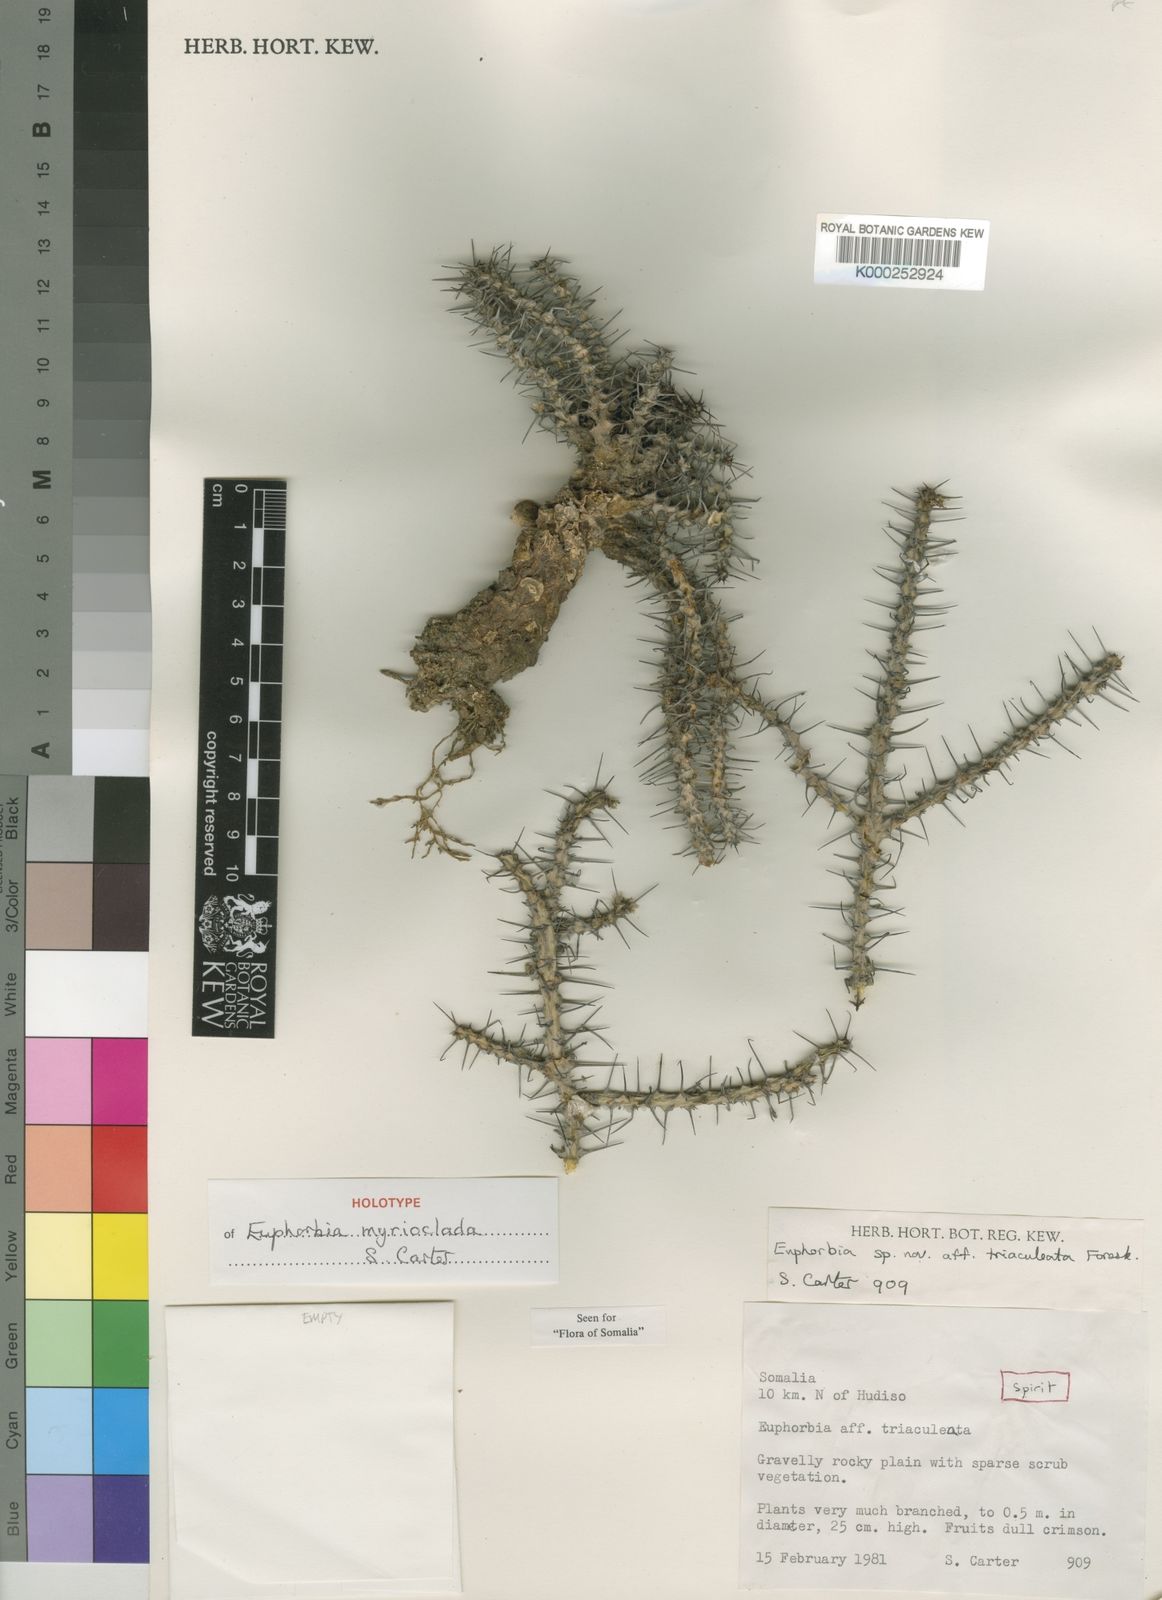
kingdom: Plantae
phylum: Tracheophyta
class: Magnoliopsida
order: Malpighiales
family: Euphorbiaceae
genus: Euphorbia
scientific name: Euphorbia myrioclada
